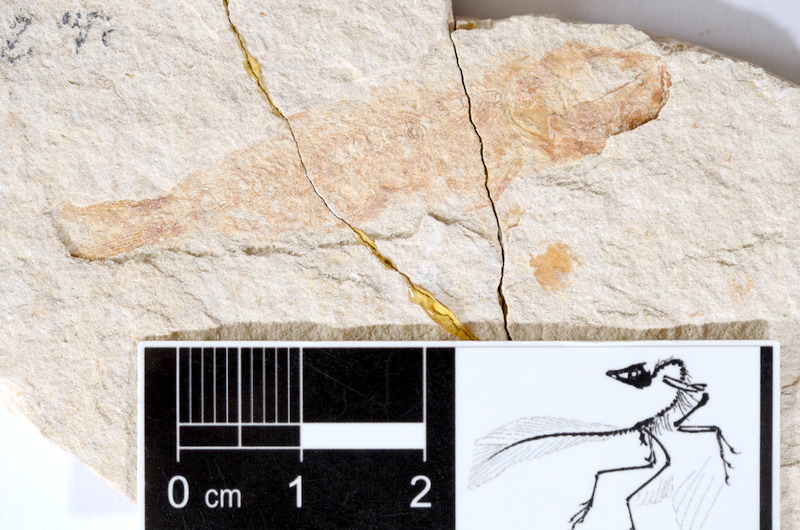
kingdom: Animalia
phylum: Chordata
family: Ascalaboidae
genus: Tharsis
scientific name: Tharsis dubius
